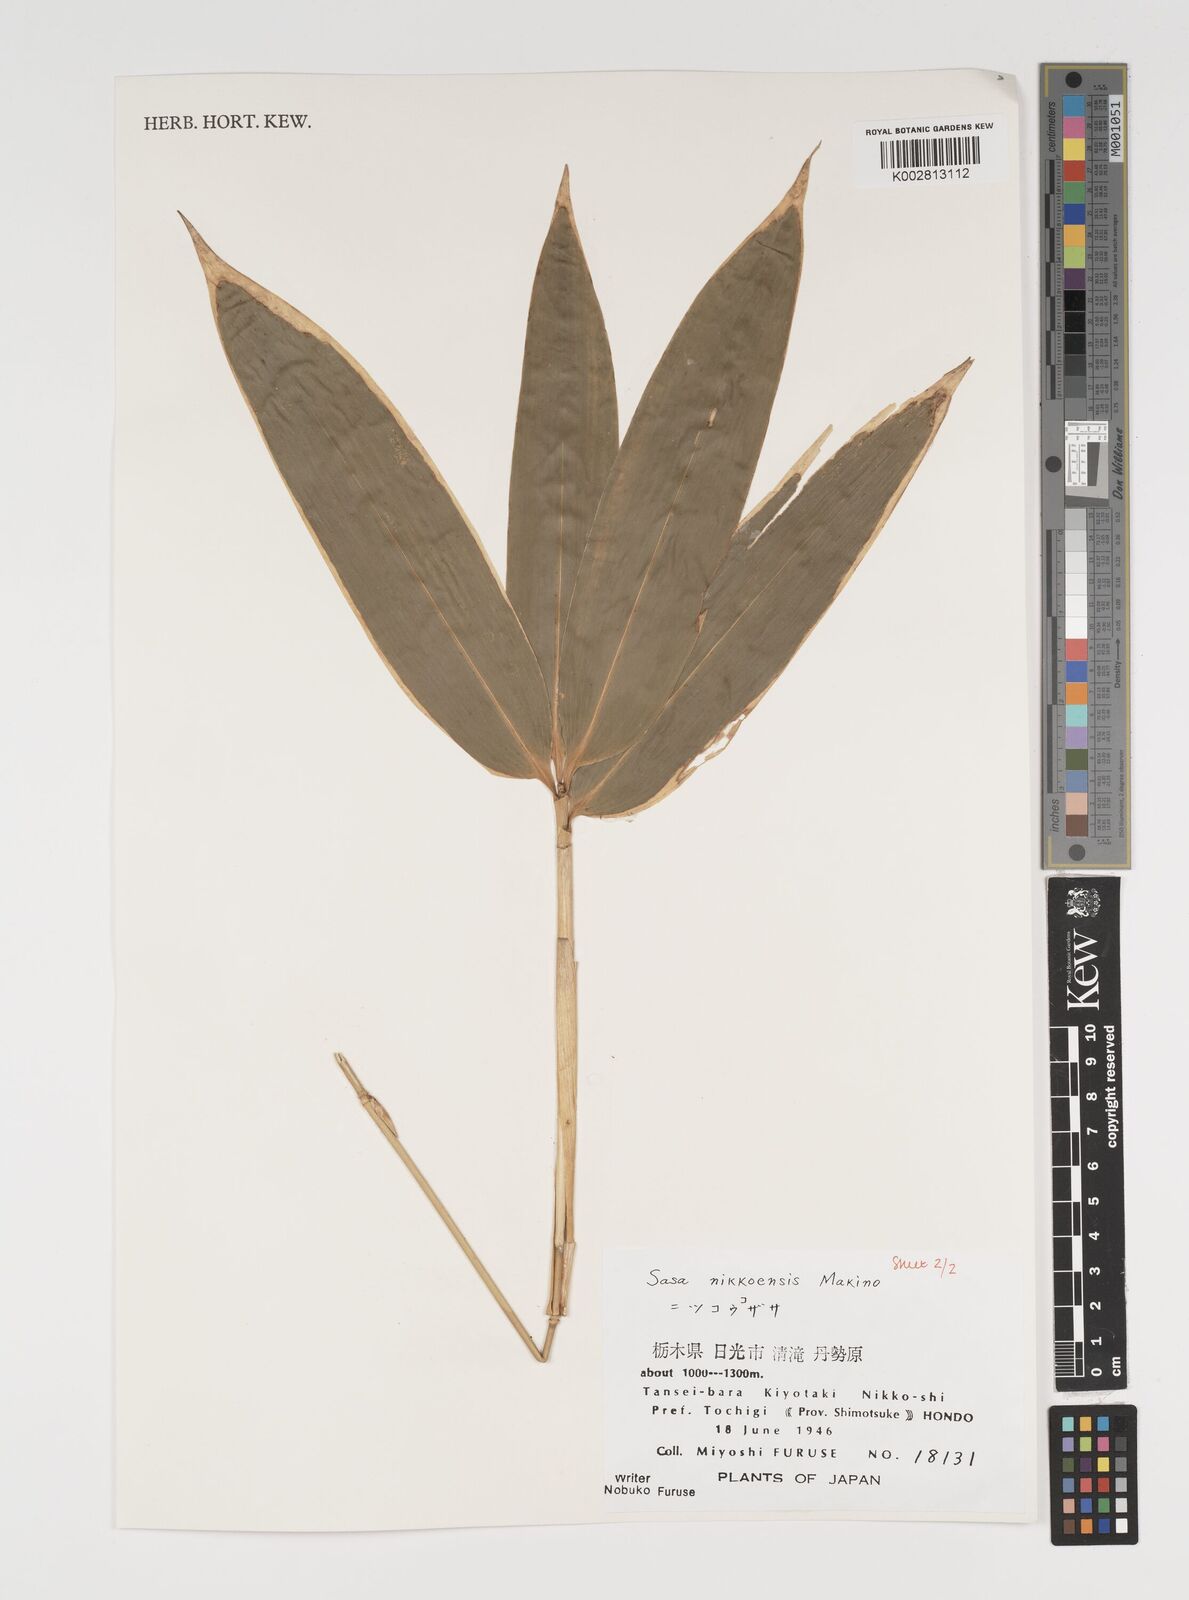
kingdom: Plantae
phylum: Tracheophyta
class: Liliopsida
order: Poales
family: Poaceae
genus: Sasa
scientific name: Sasa chartacea
